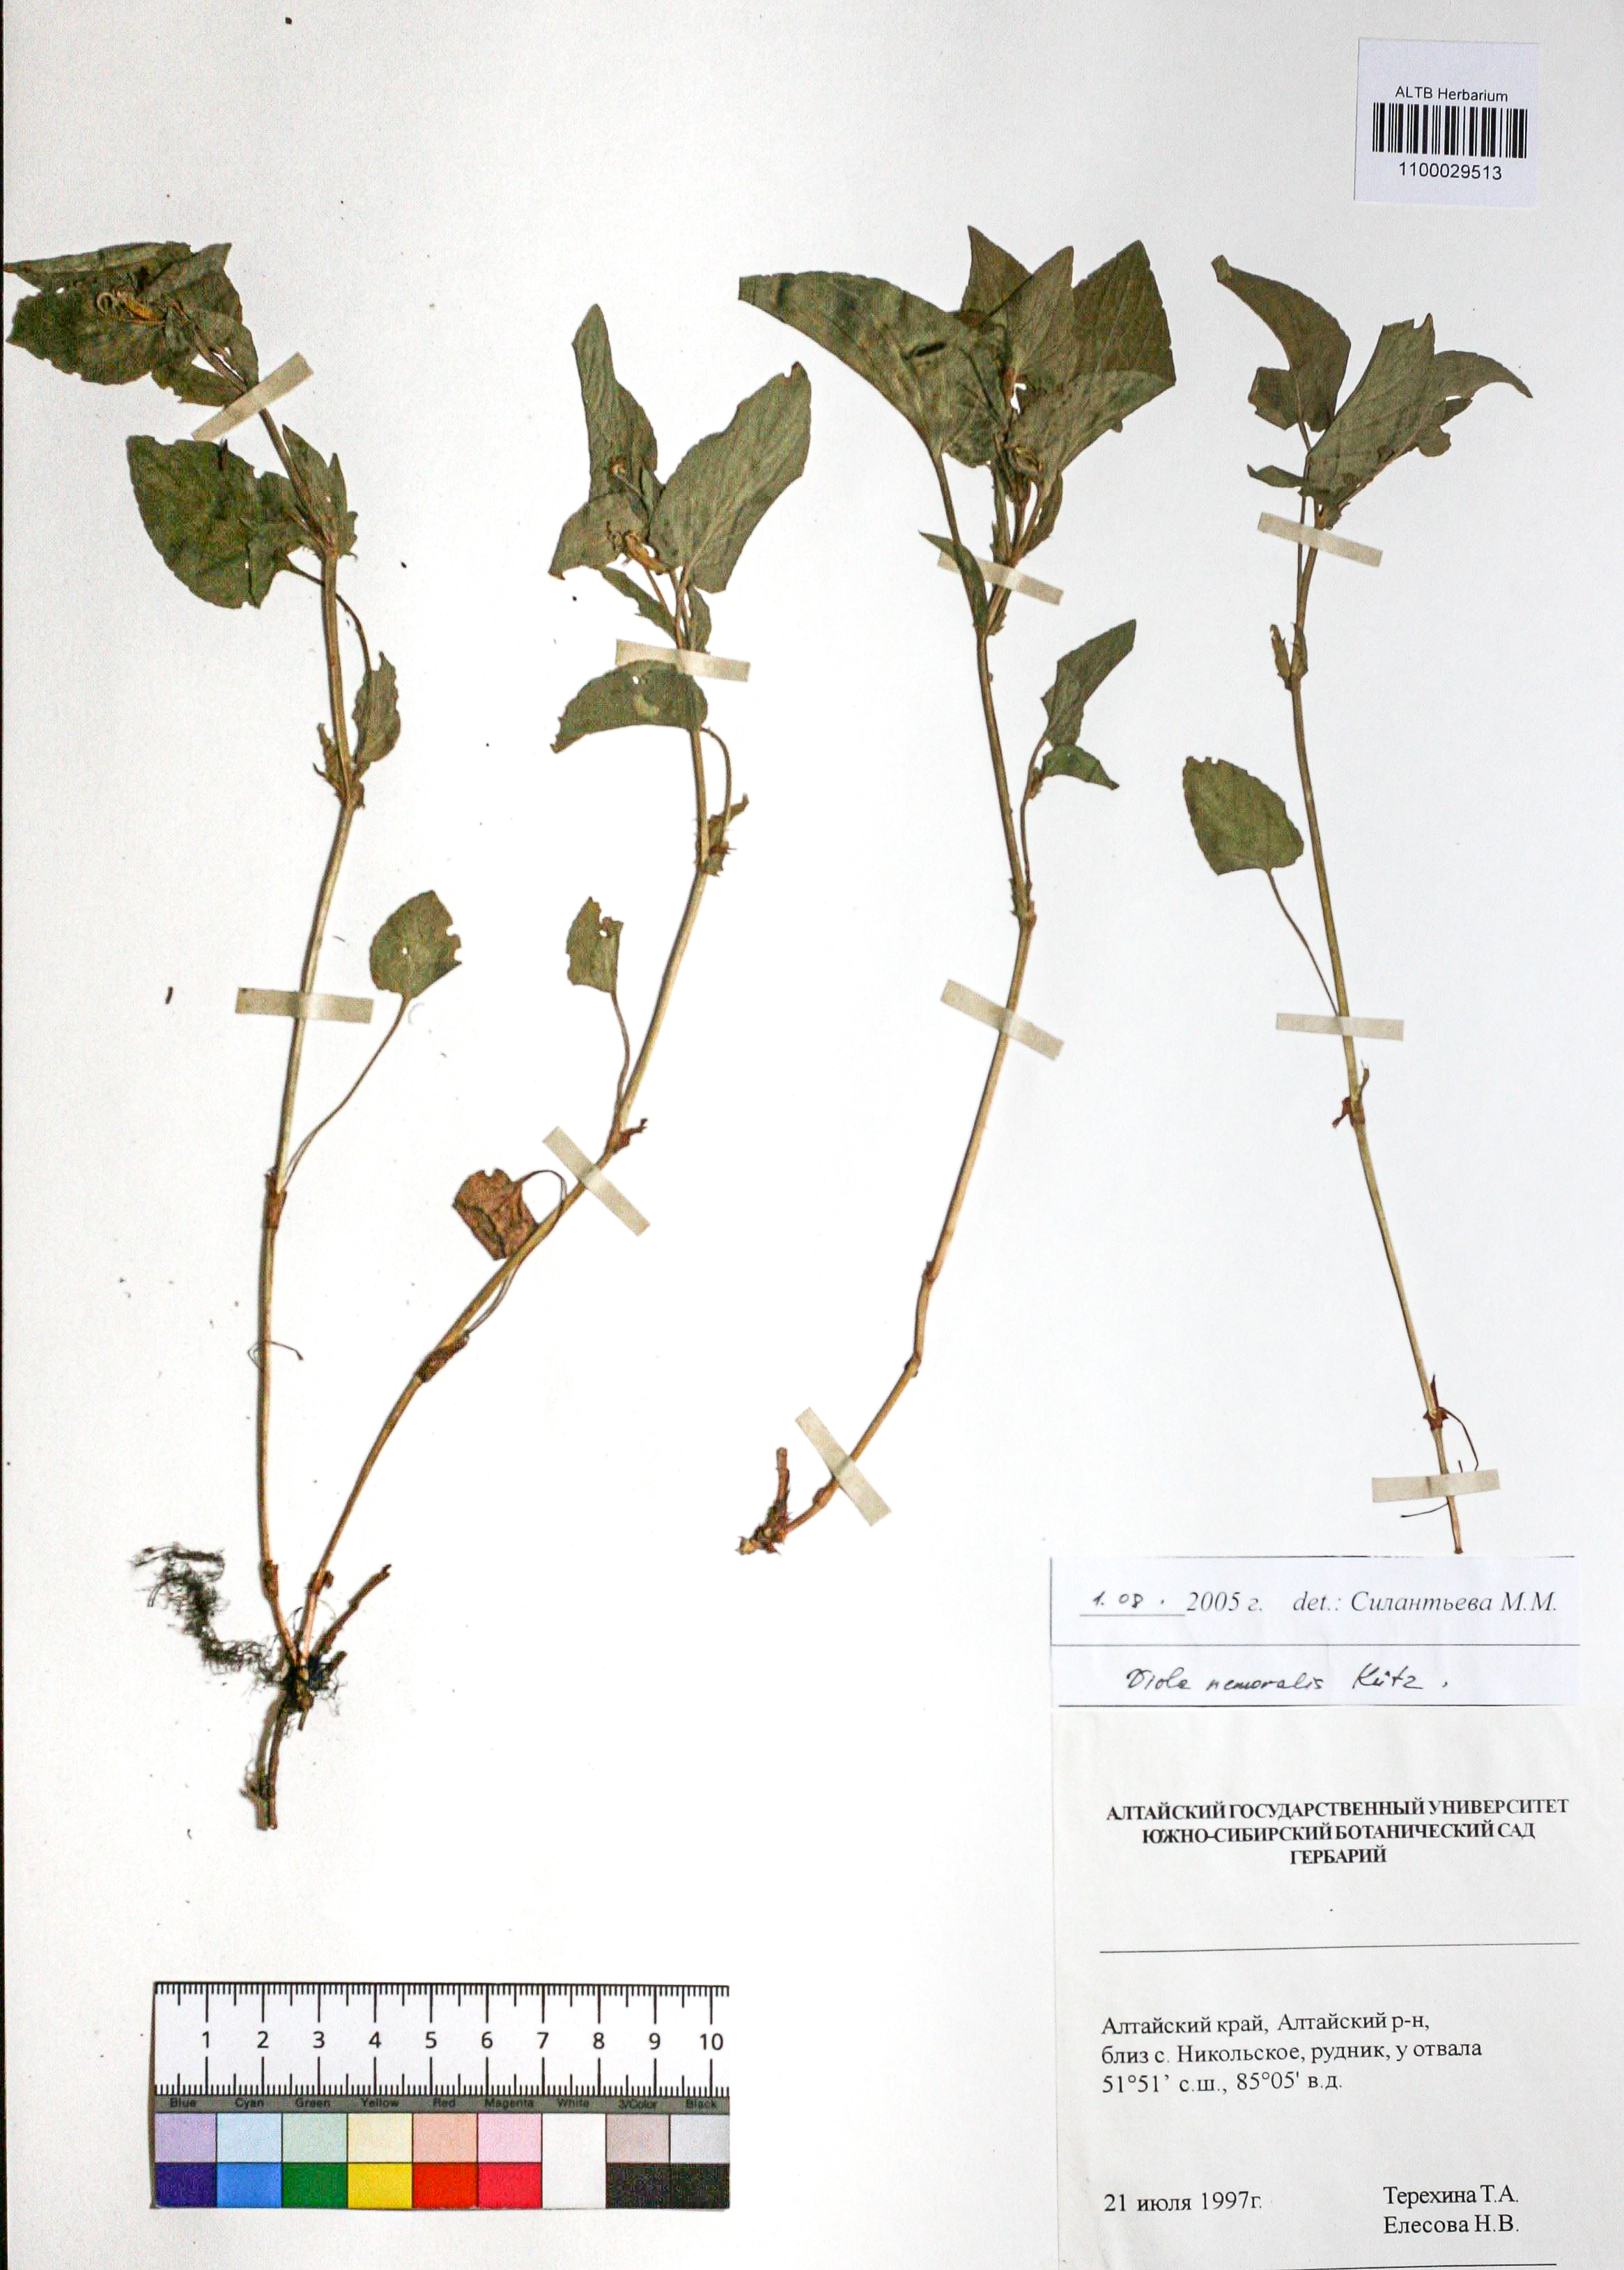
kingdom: Plantae
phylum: Tracheophyta
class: Magnoliopsida
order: Malpighiales
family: Violaceae
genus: Viola
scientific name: Viola ruppii
